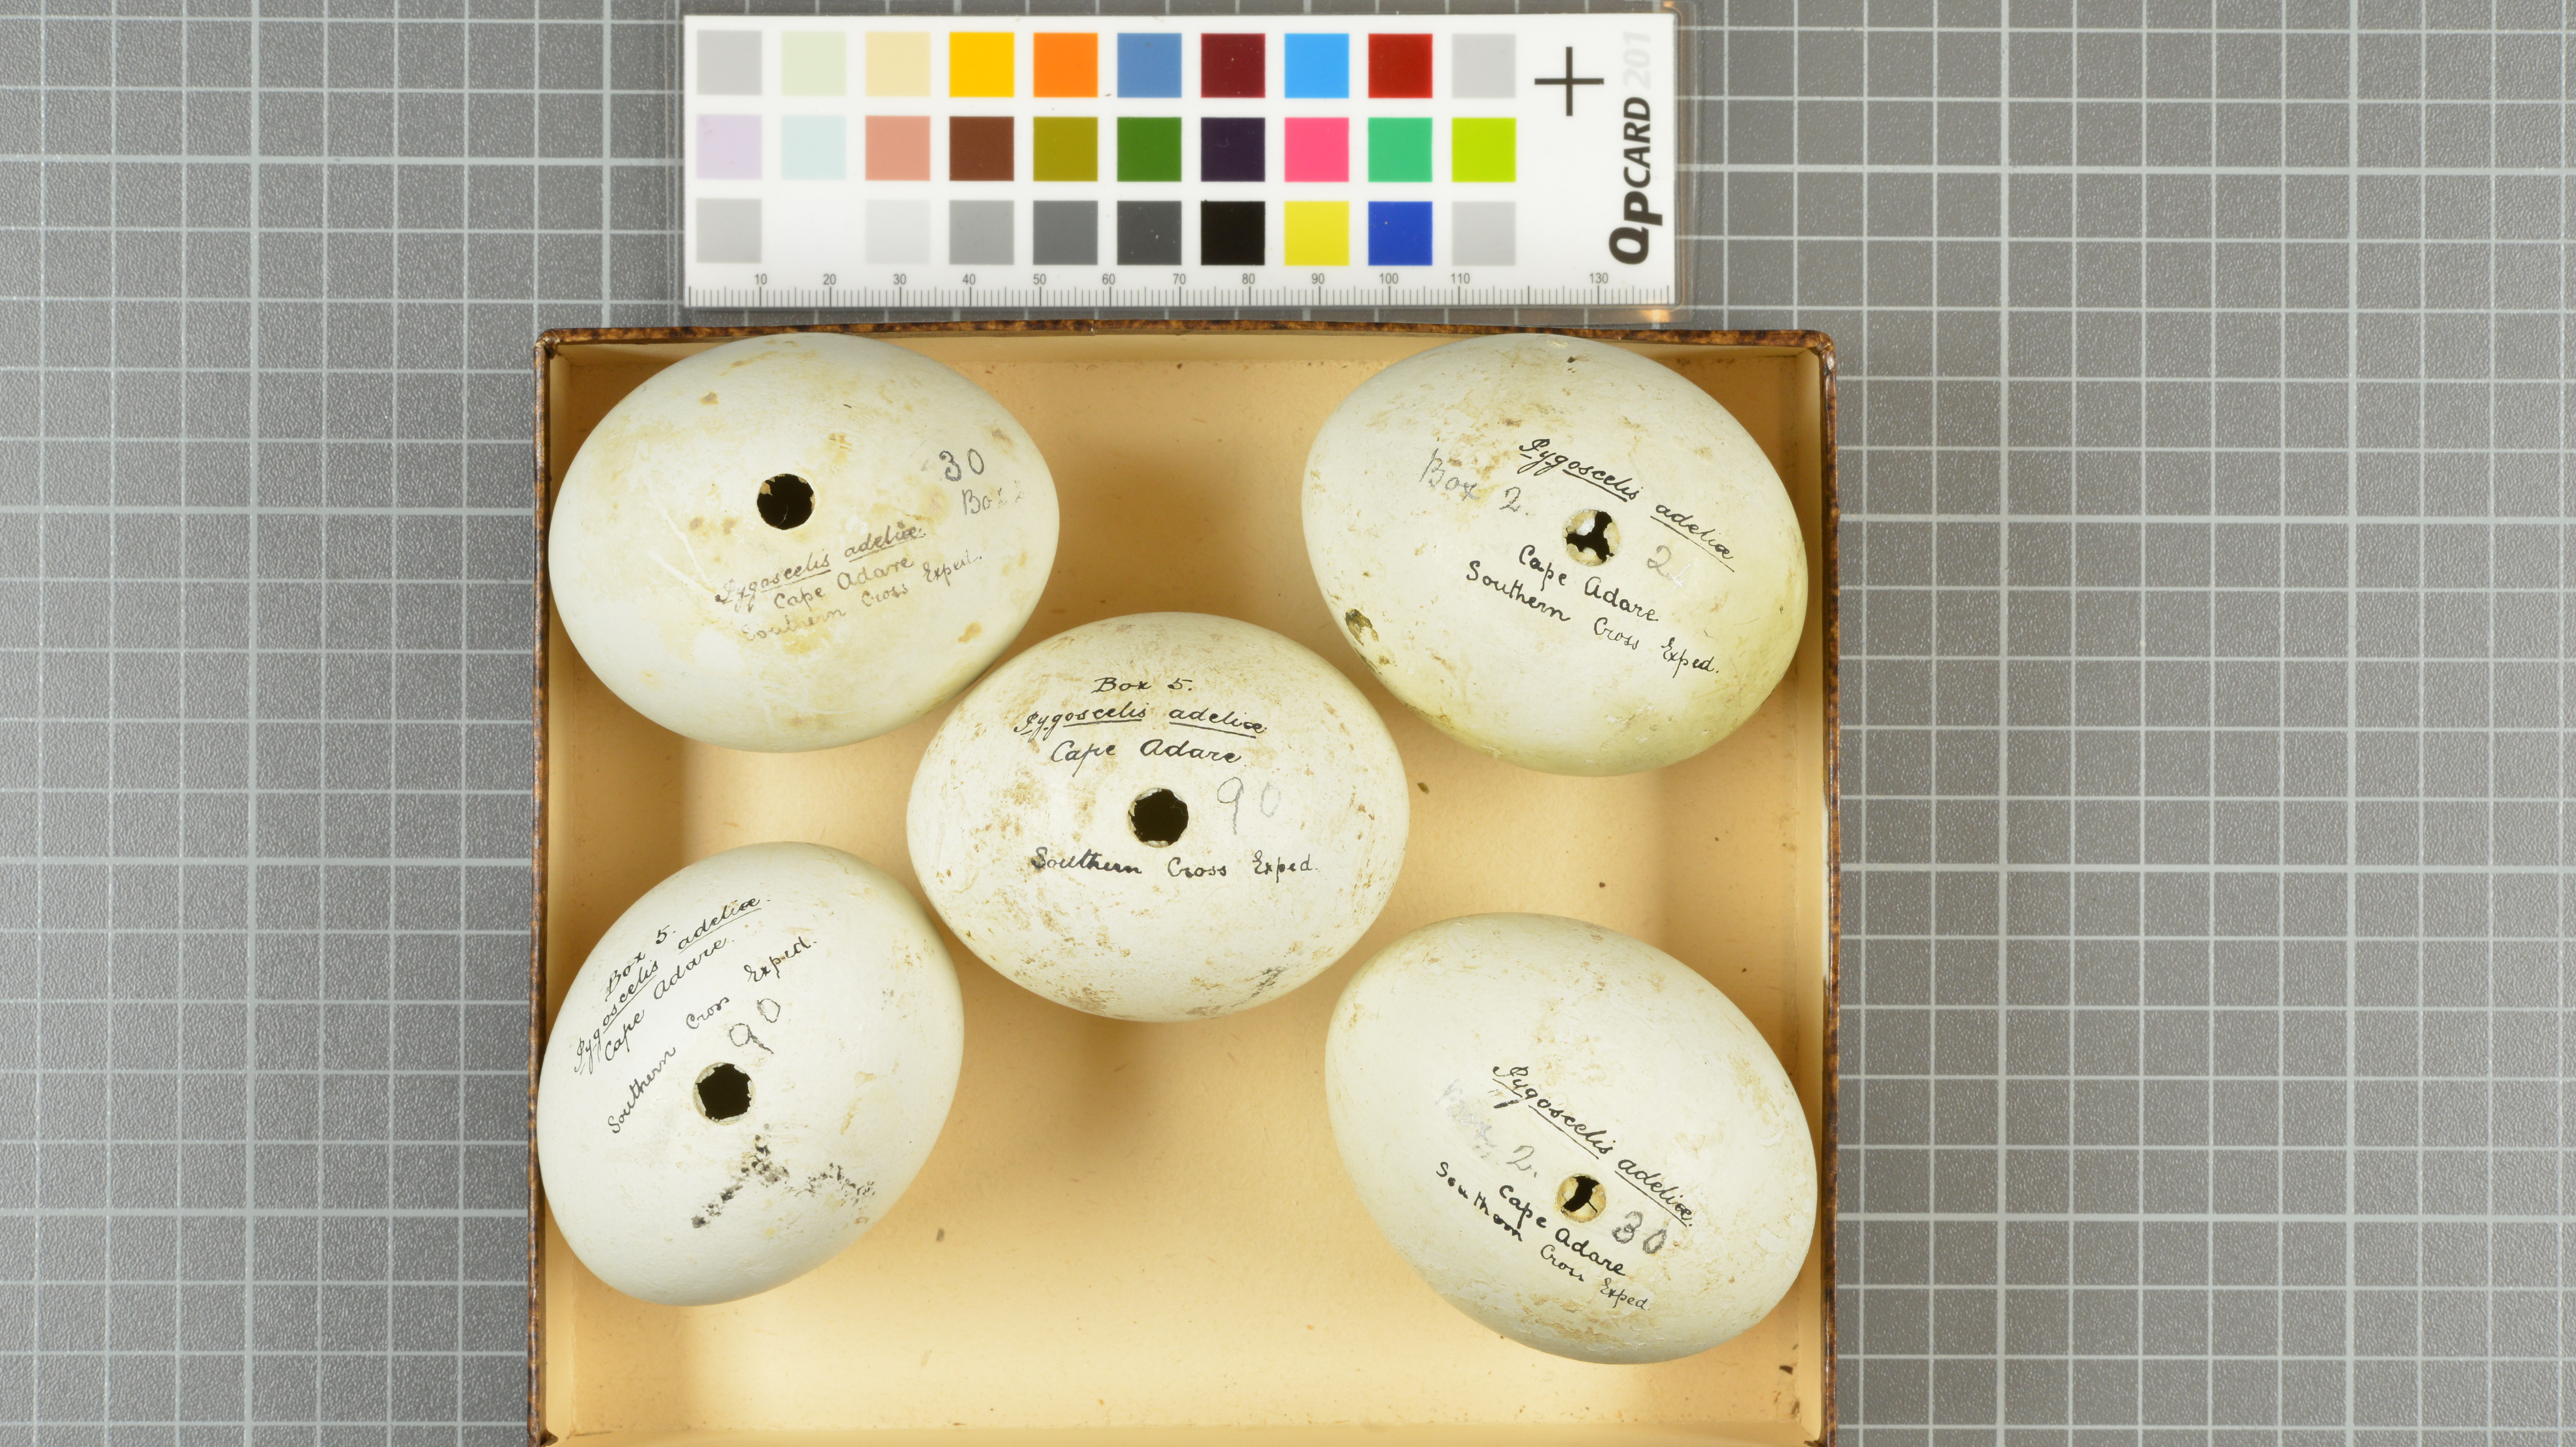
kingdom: Animalia
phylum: Chordata
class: Aves
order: Sphenisciformes
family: Spheniscidae
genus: Pygoscelis
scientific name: Pygoscelis adeliae
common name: Adelie penguin
